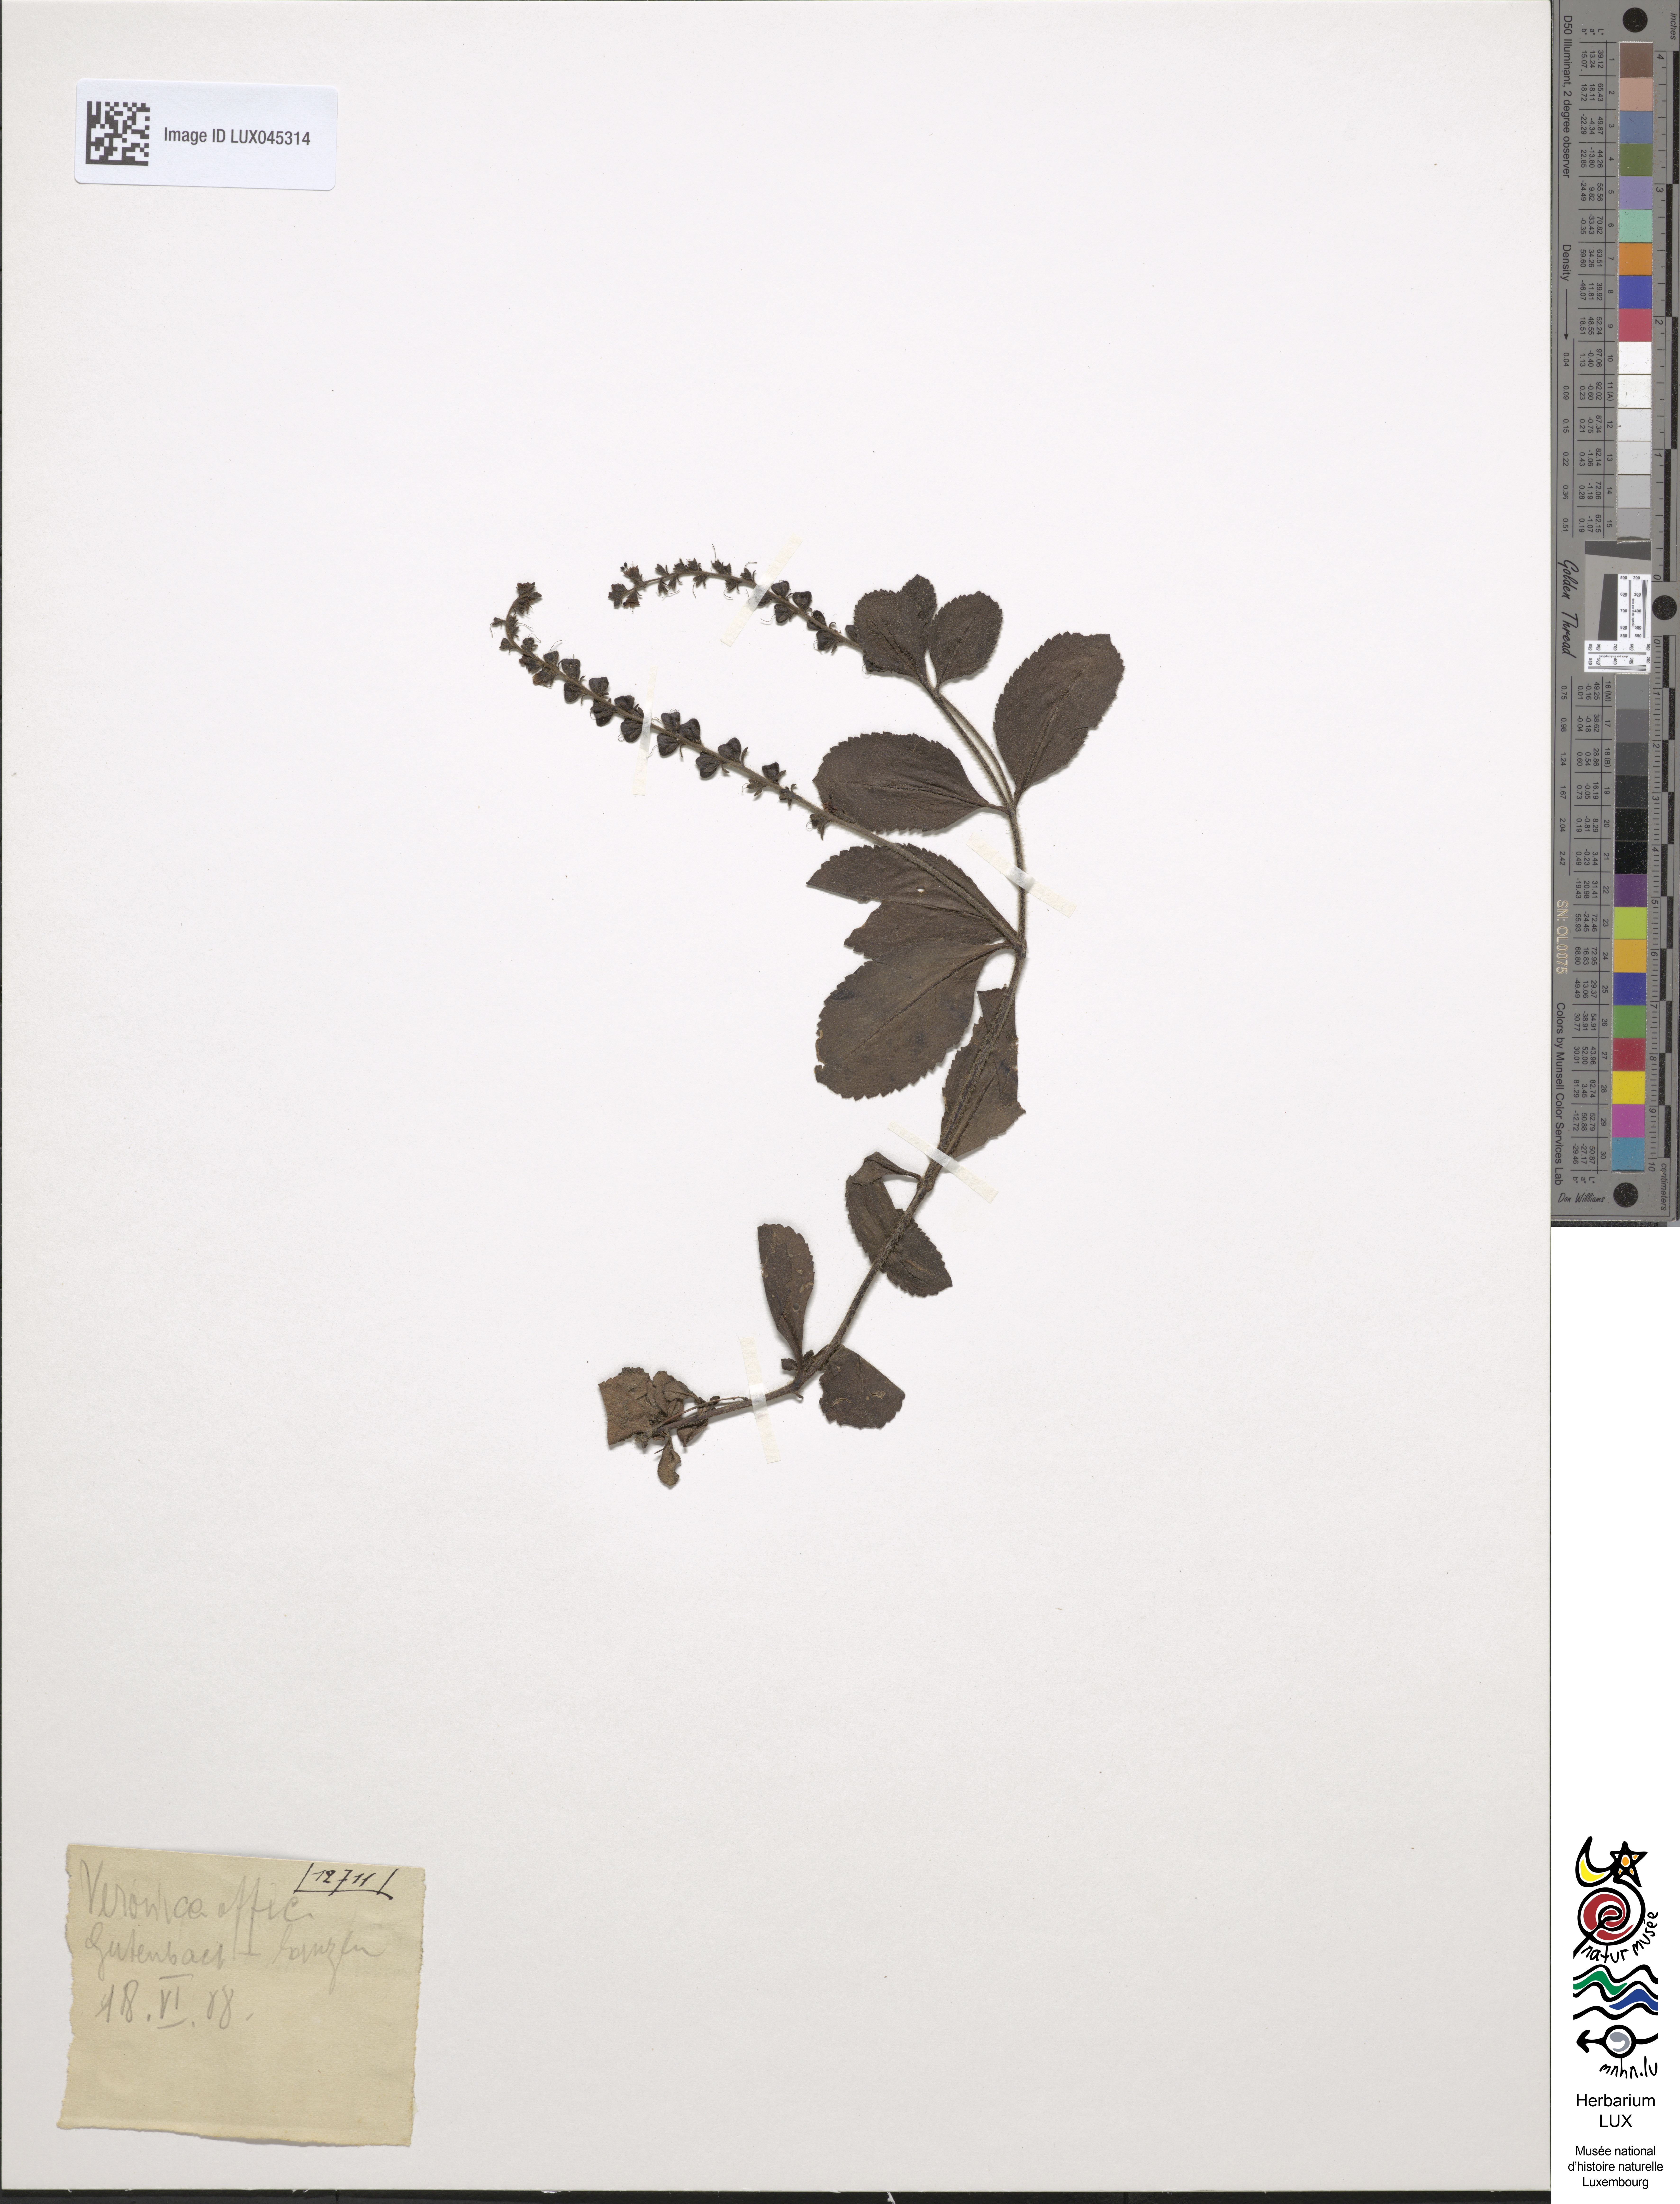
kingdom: Plantae
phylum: Tracheophyta
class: Magnoliopsida
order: Lamiales
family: Plantaginaceae
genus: Veronica
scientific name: Veronica officinalis
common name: Common speedwell
